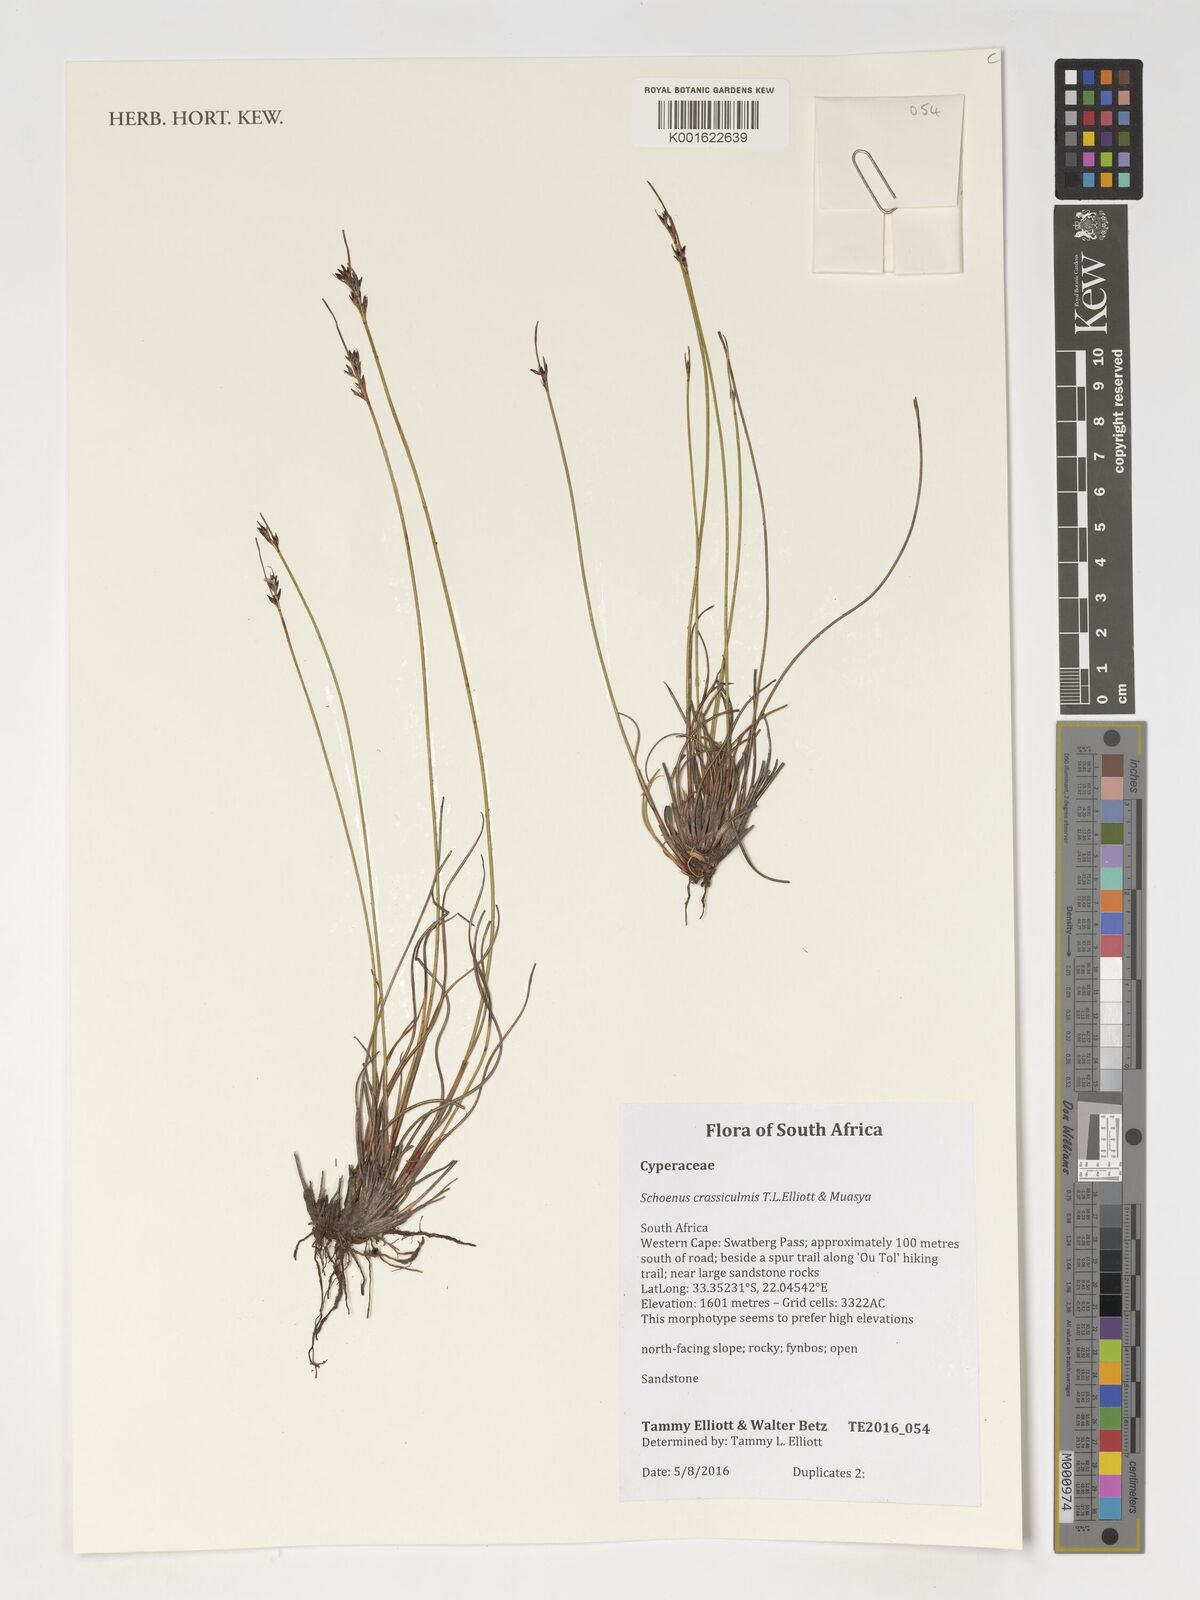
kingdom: Plantae
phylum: Tracheophyta
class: Liliopsida
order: Poales
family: Cyperaceae
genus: Schoenus
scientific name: Schoenus crassiculmis
